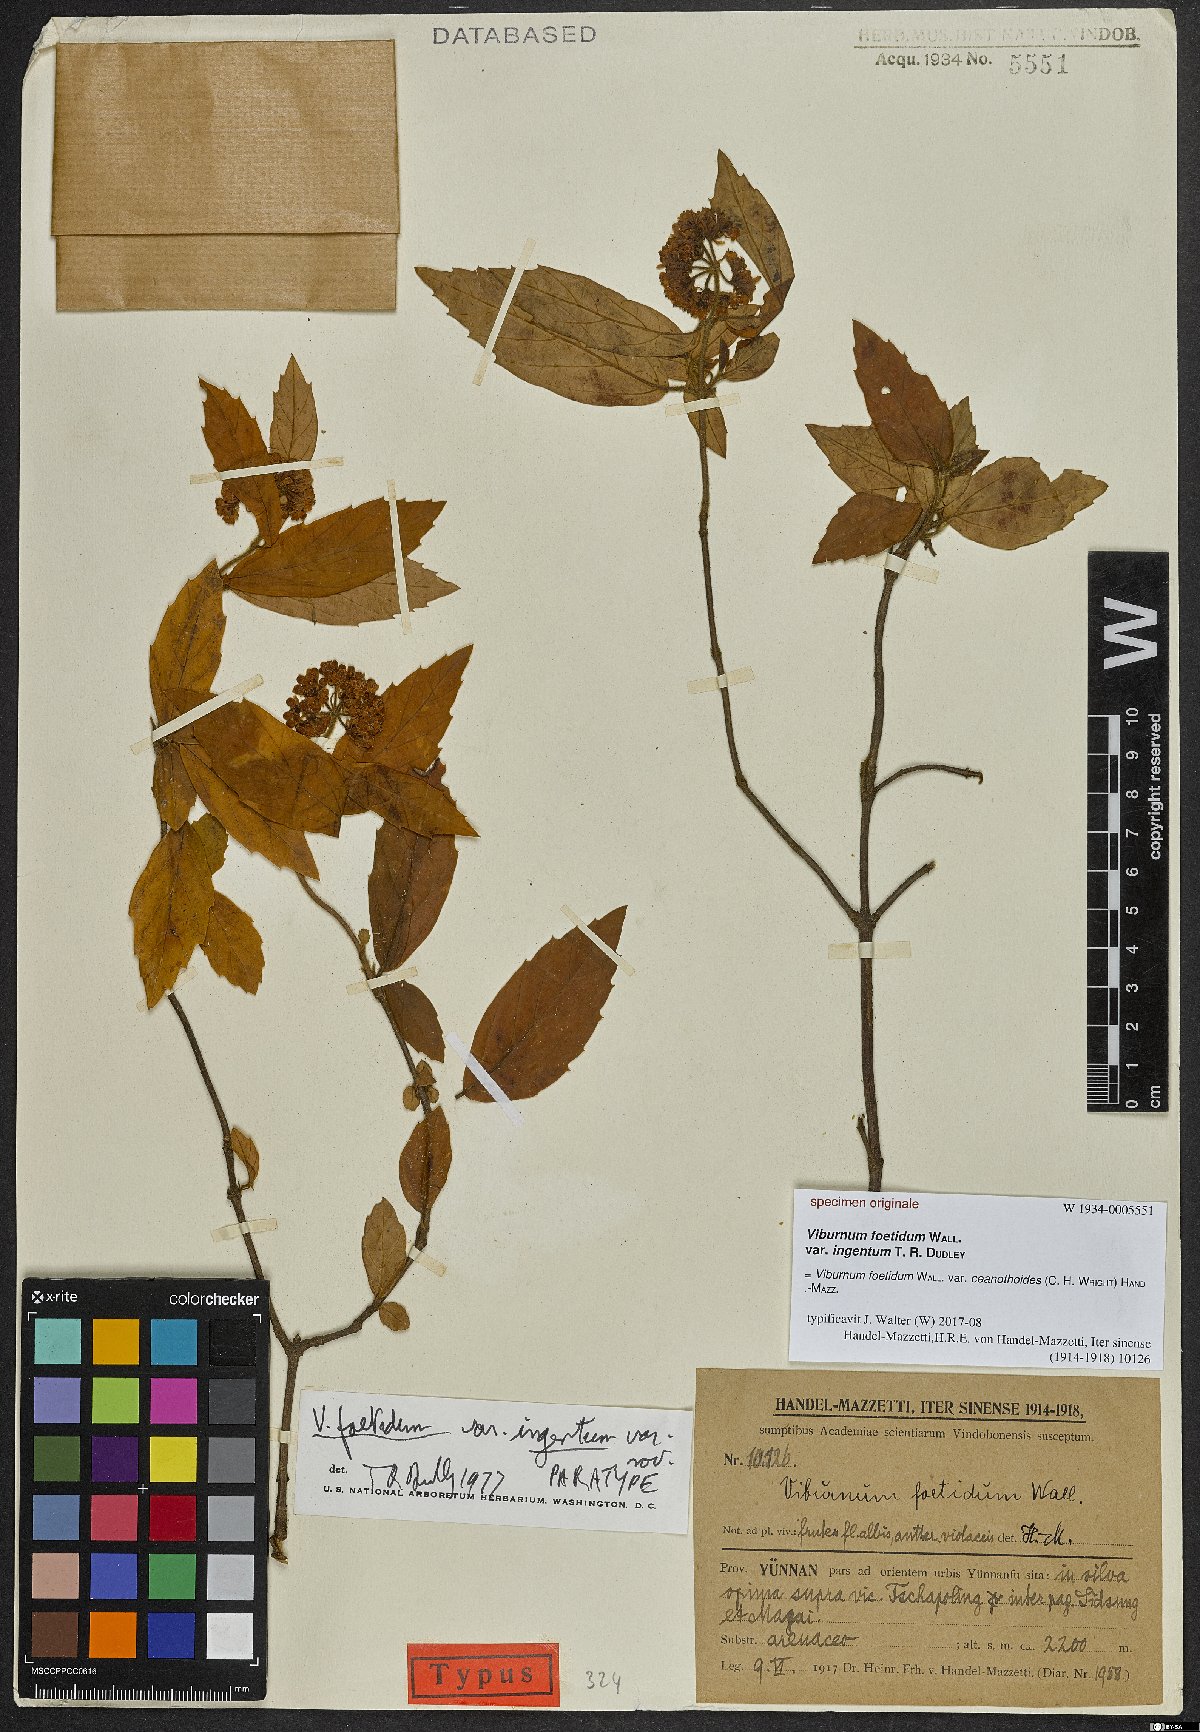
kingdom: Plantae
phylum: Tracheophyta
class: Magnoliopsida
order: Dipsacales
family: Viburnaceae
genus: Viburnum
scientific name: Viburnum foetidum
